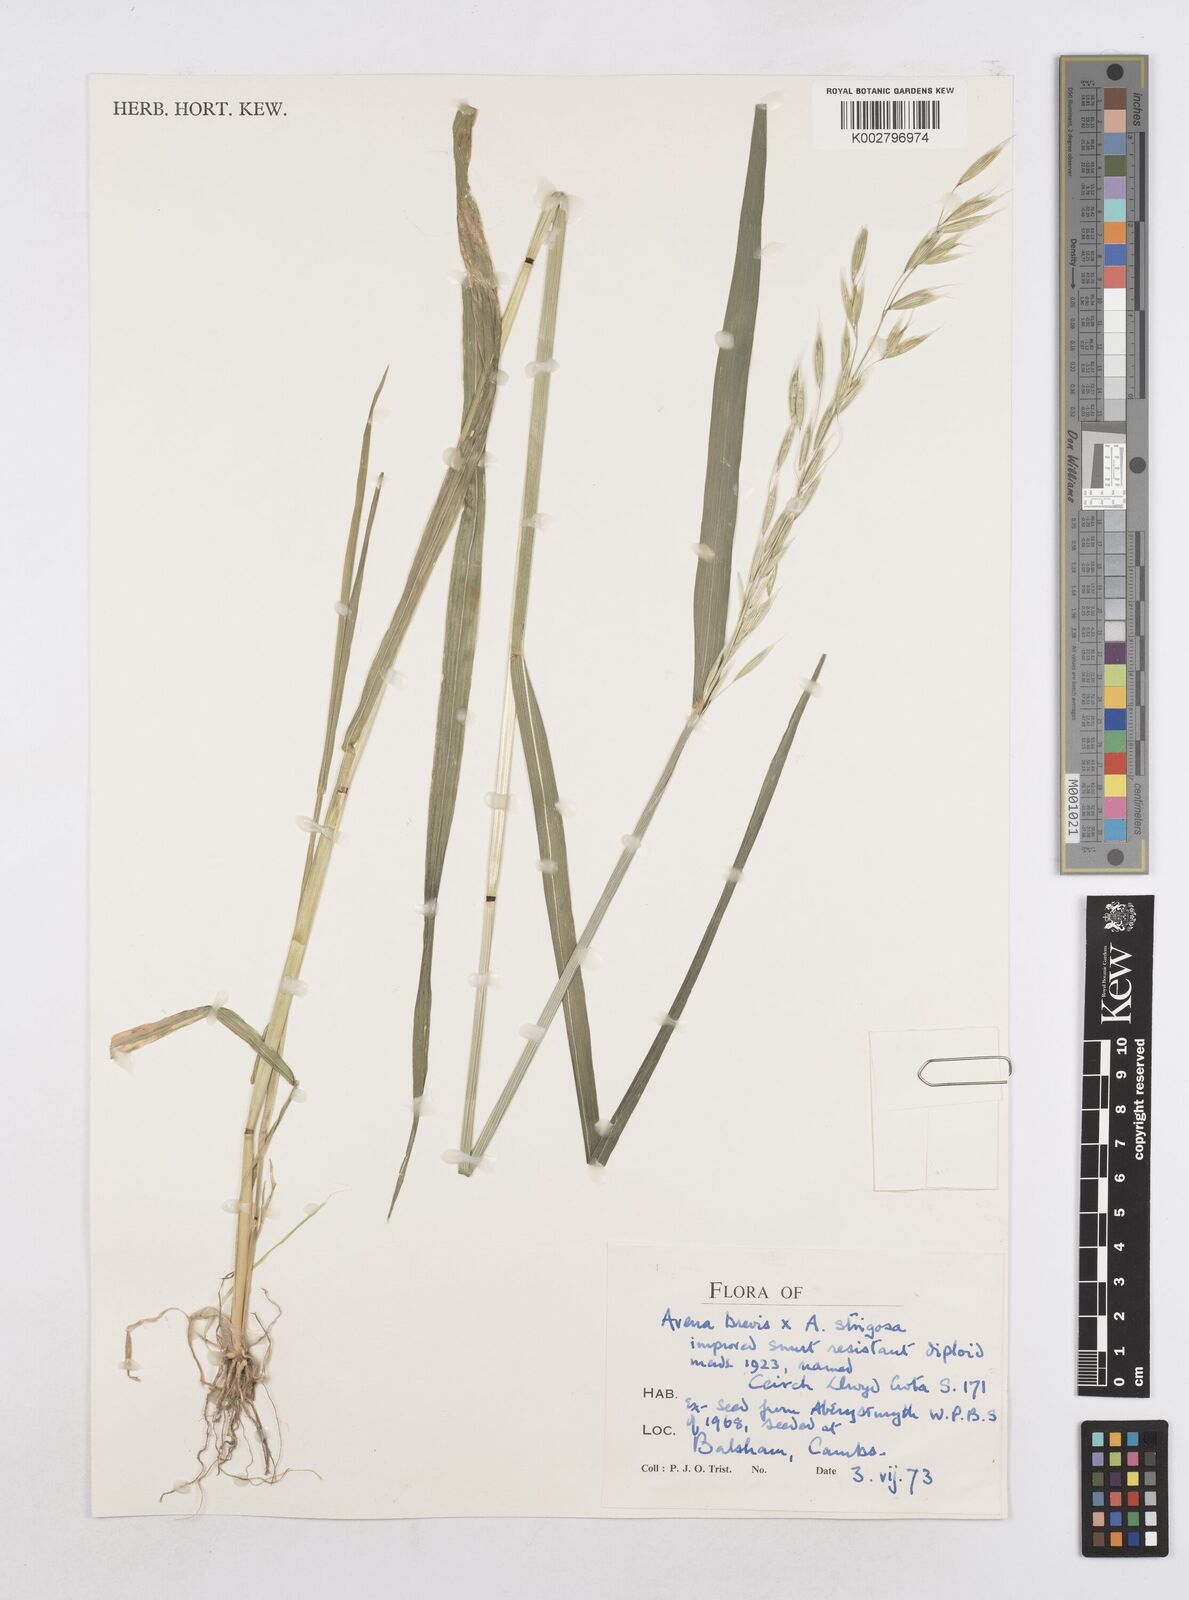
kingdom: Plantae
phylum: Tracheophyta
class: Liliopsida
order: Poales
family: Poaceae
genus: Avena
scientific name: Avena strigosa
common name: Bristle oat
